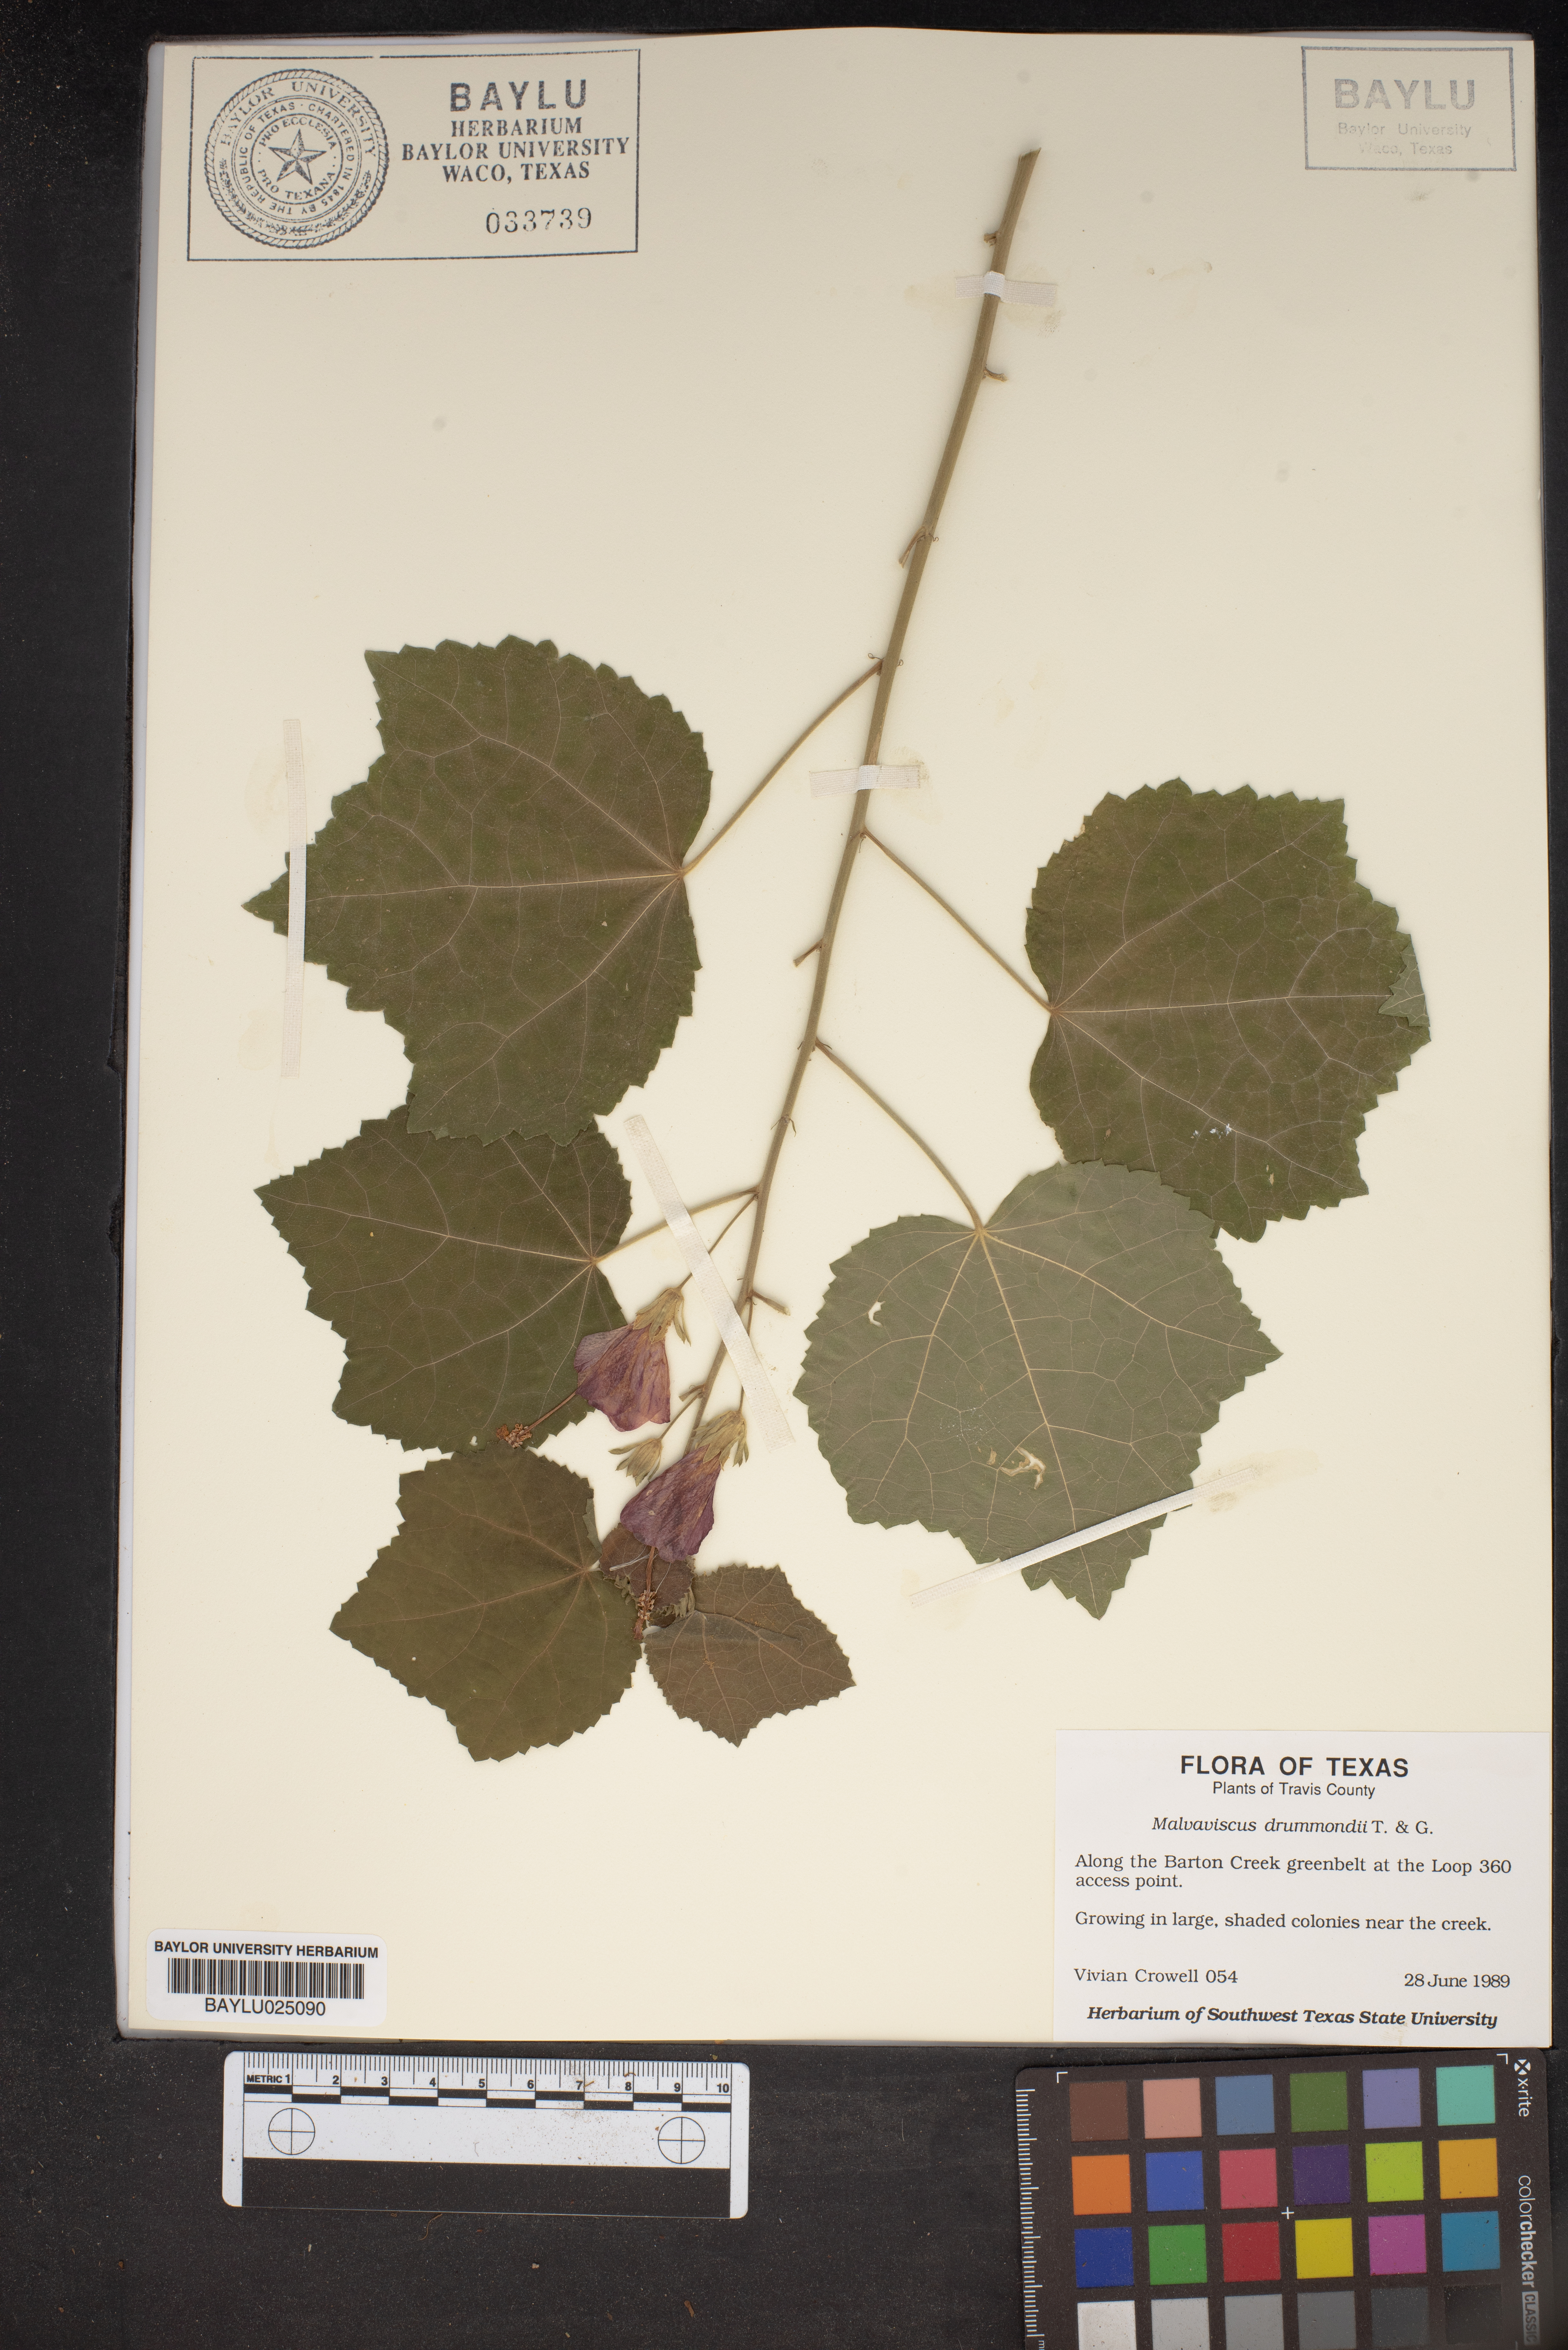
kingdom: Plantae
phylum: Tracheophyta
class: Magnoliopsida
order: Malvales
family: Malvaceae
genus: Malvaviscus
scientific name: Malvaviscus arboreus
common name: Wax mallow
